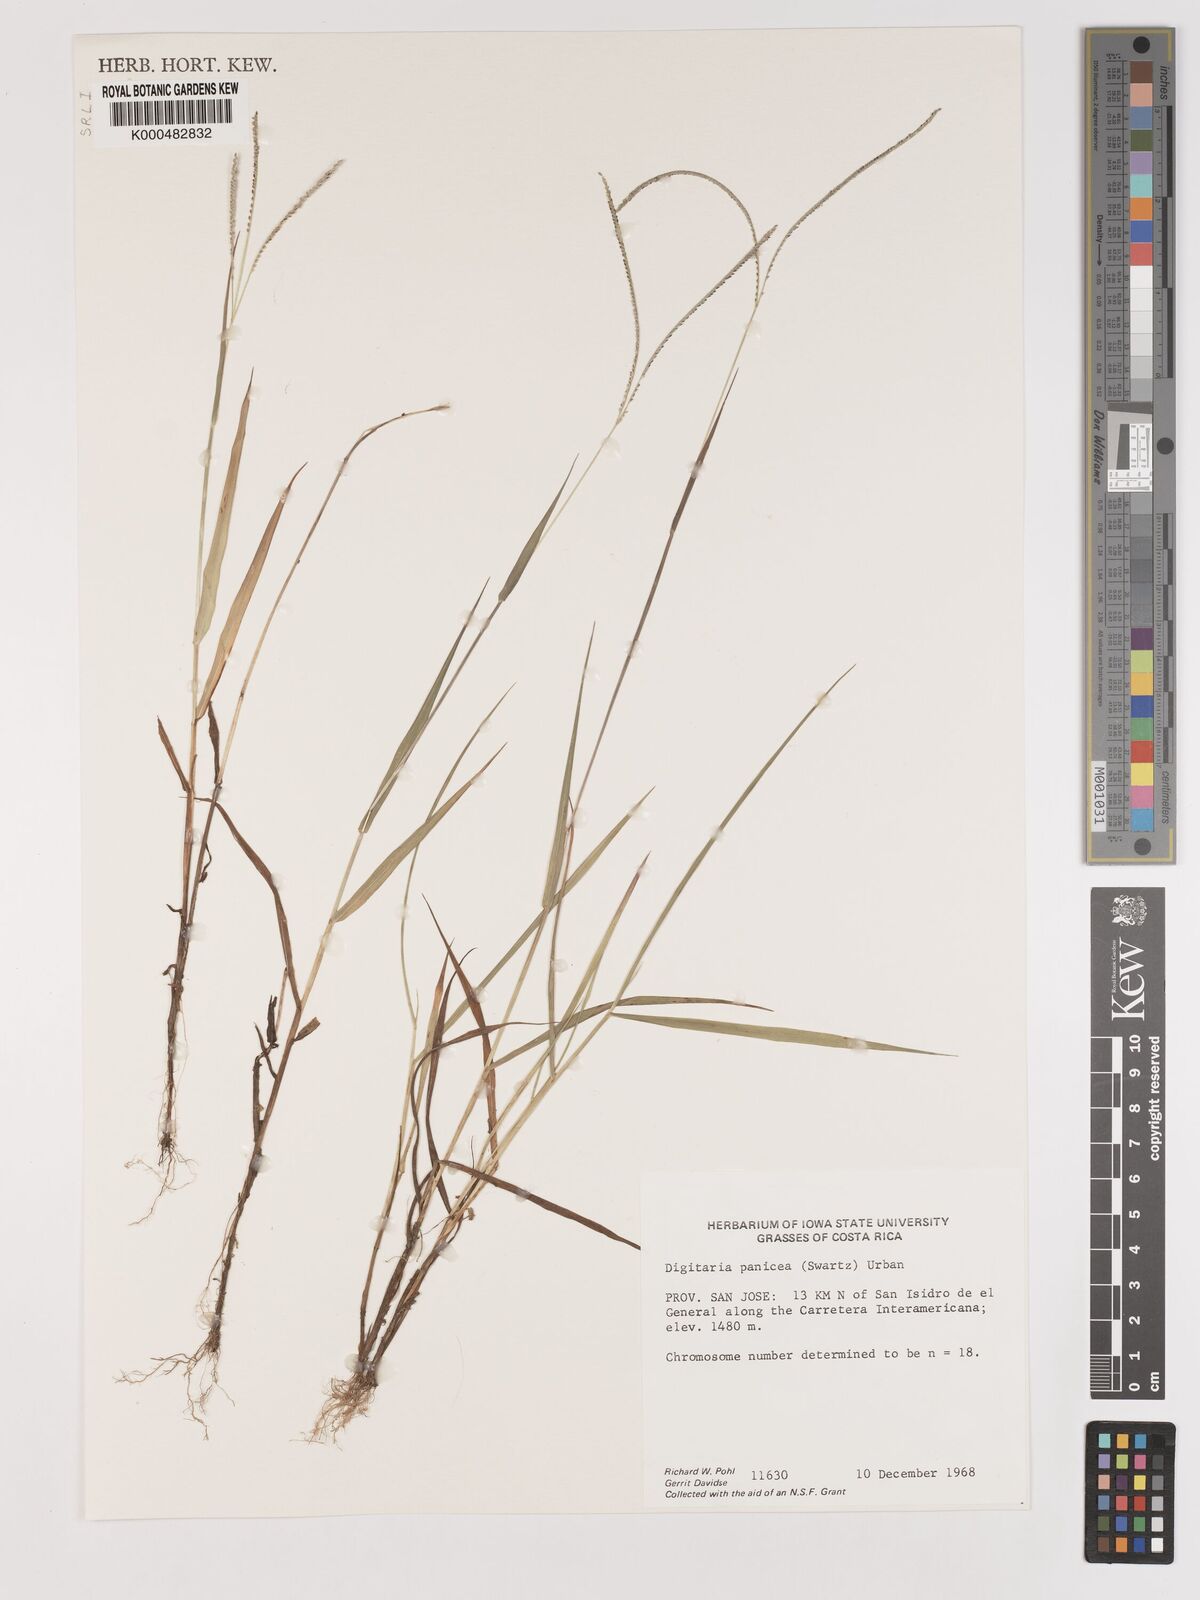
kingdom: Plantae
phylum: Tracheophyta
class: Liliopsida
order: Poales
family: Poaceae
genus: Digitaria
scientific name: Digitaria curvinervis
